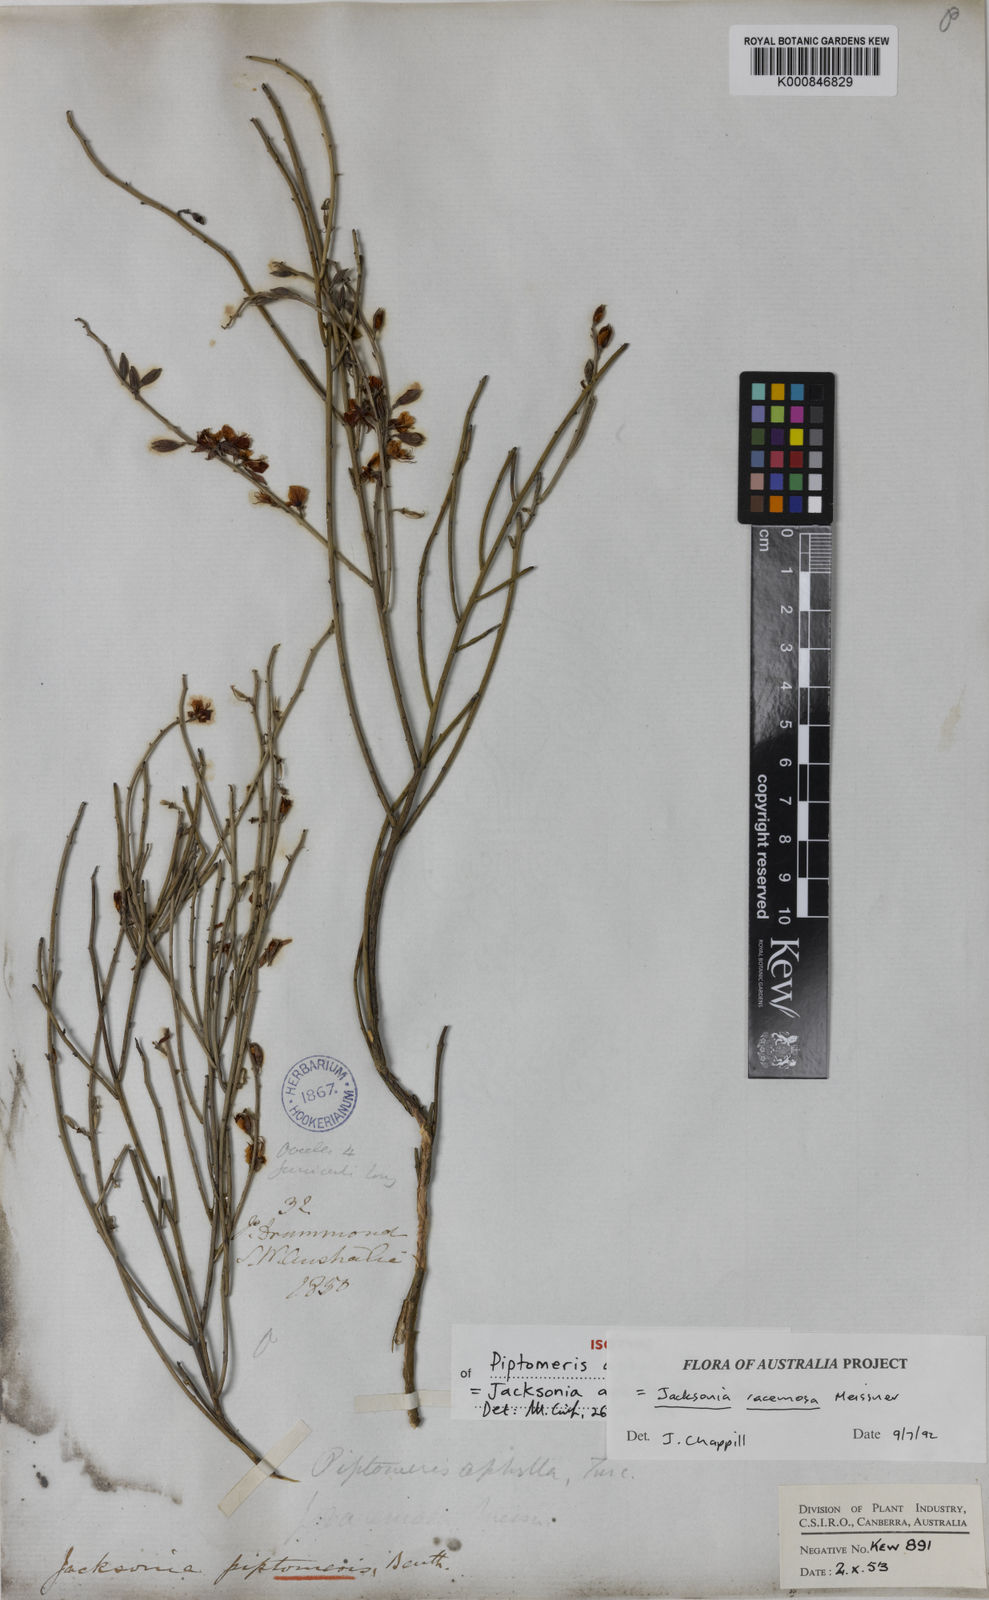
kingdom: Plantae
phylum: Tracheophyta
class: Magnoliopsida
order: Fabales
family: Fabaceae
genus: Jacksonia
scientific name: Jacksonia racemosa
